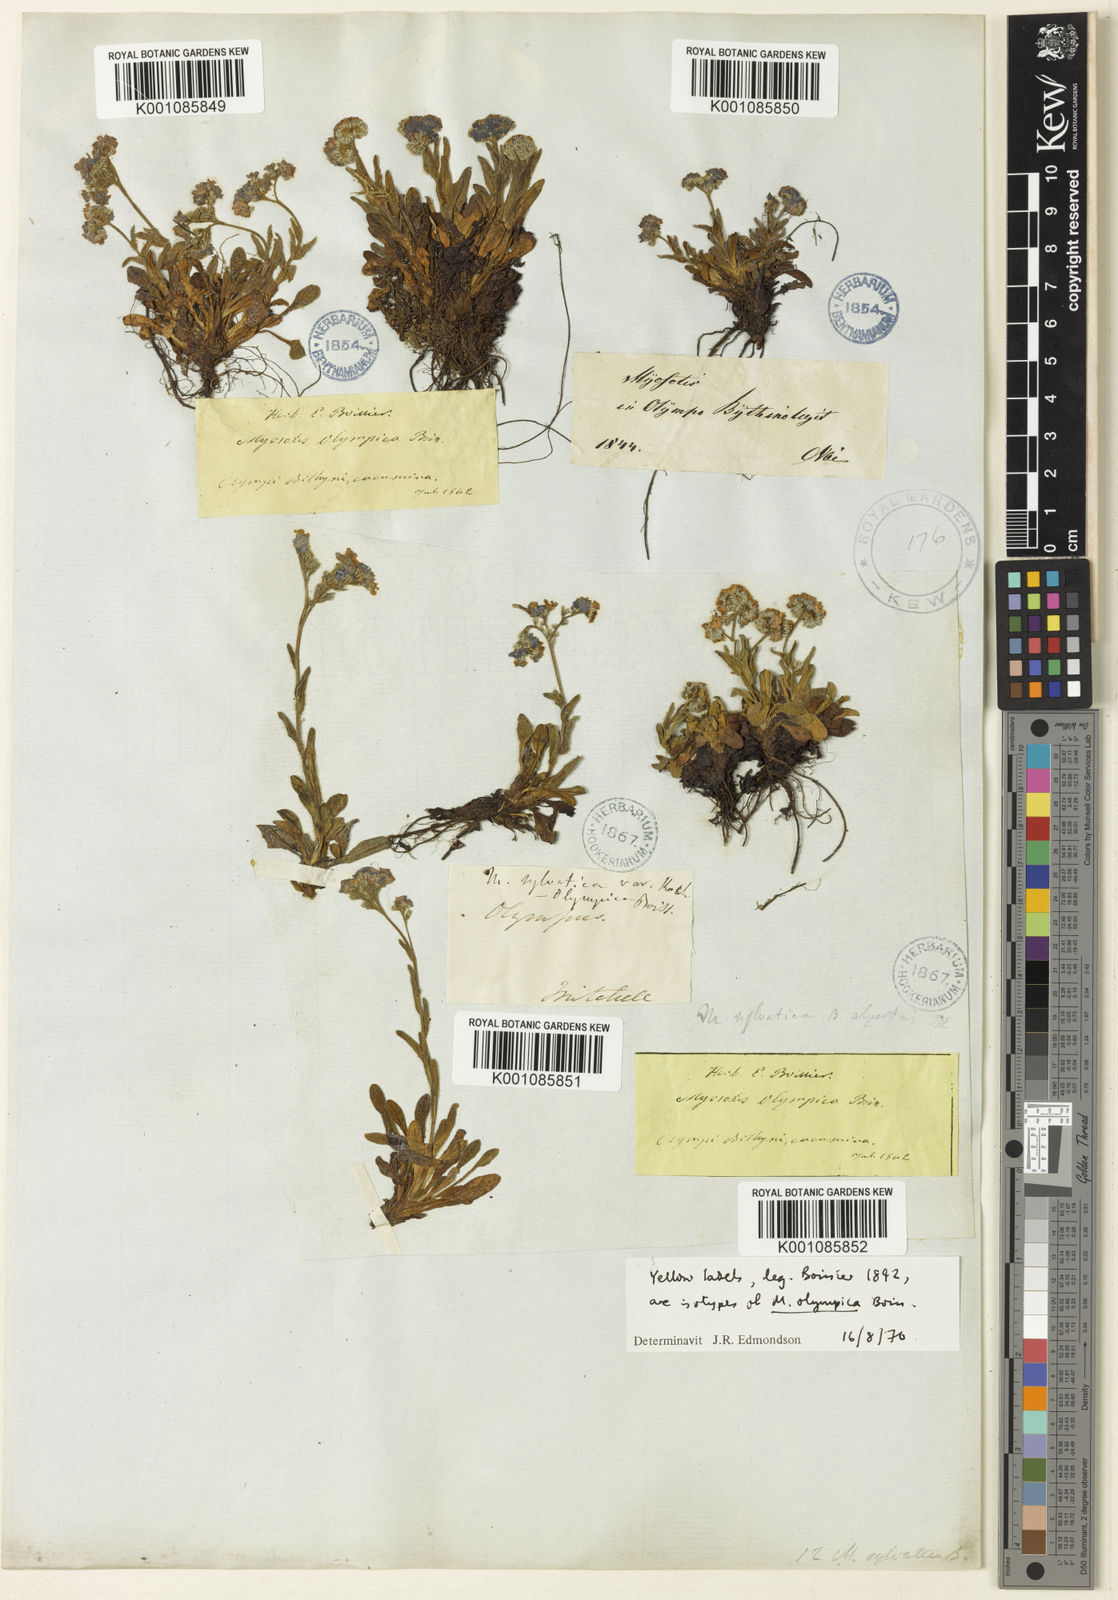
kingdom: Plantae
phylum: Tracheophyta
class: Magnoliopsida
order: Boraginales
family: Boraginaceae
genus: Myosotis
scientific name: Myosotis olympica
